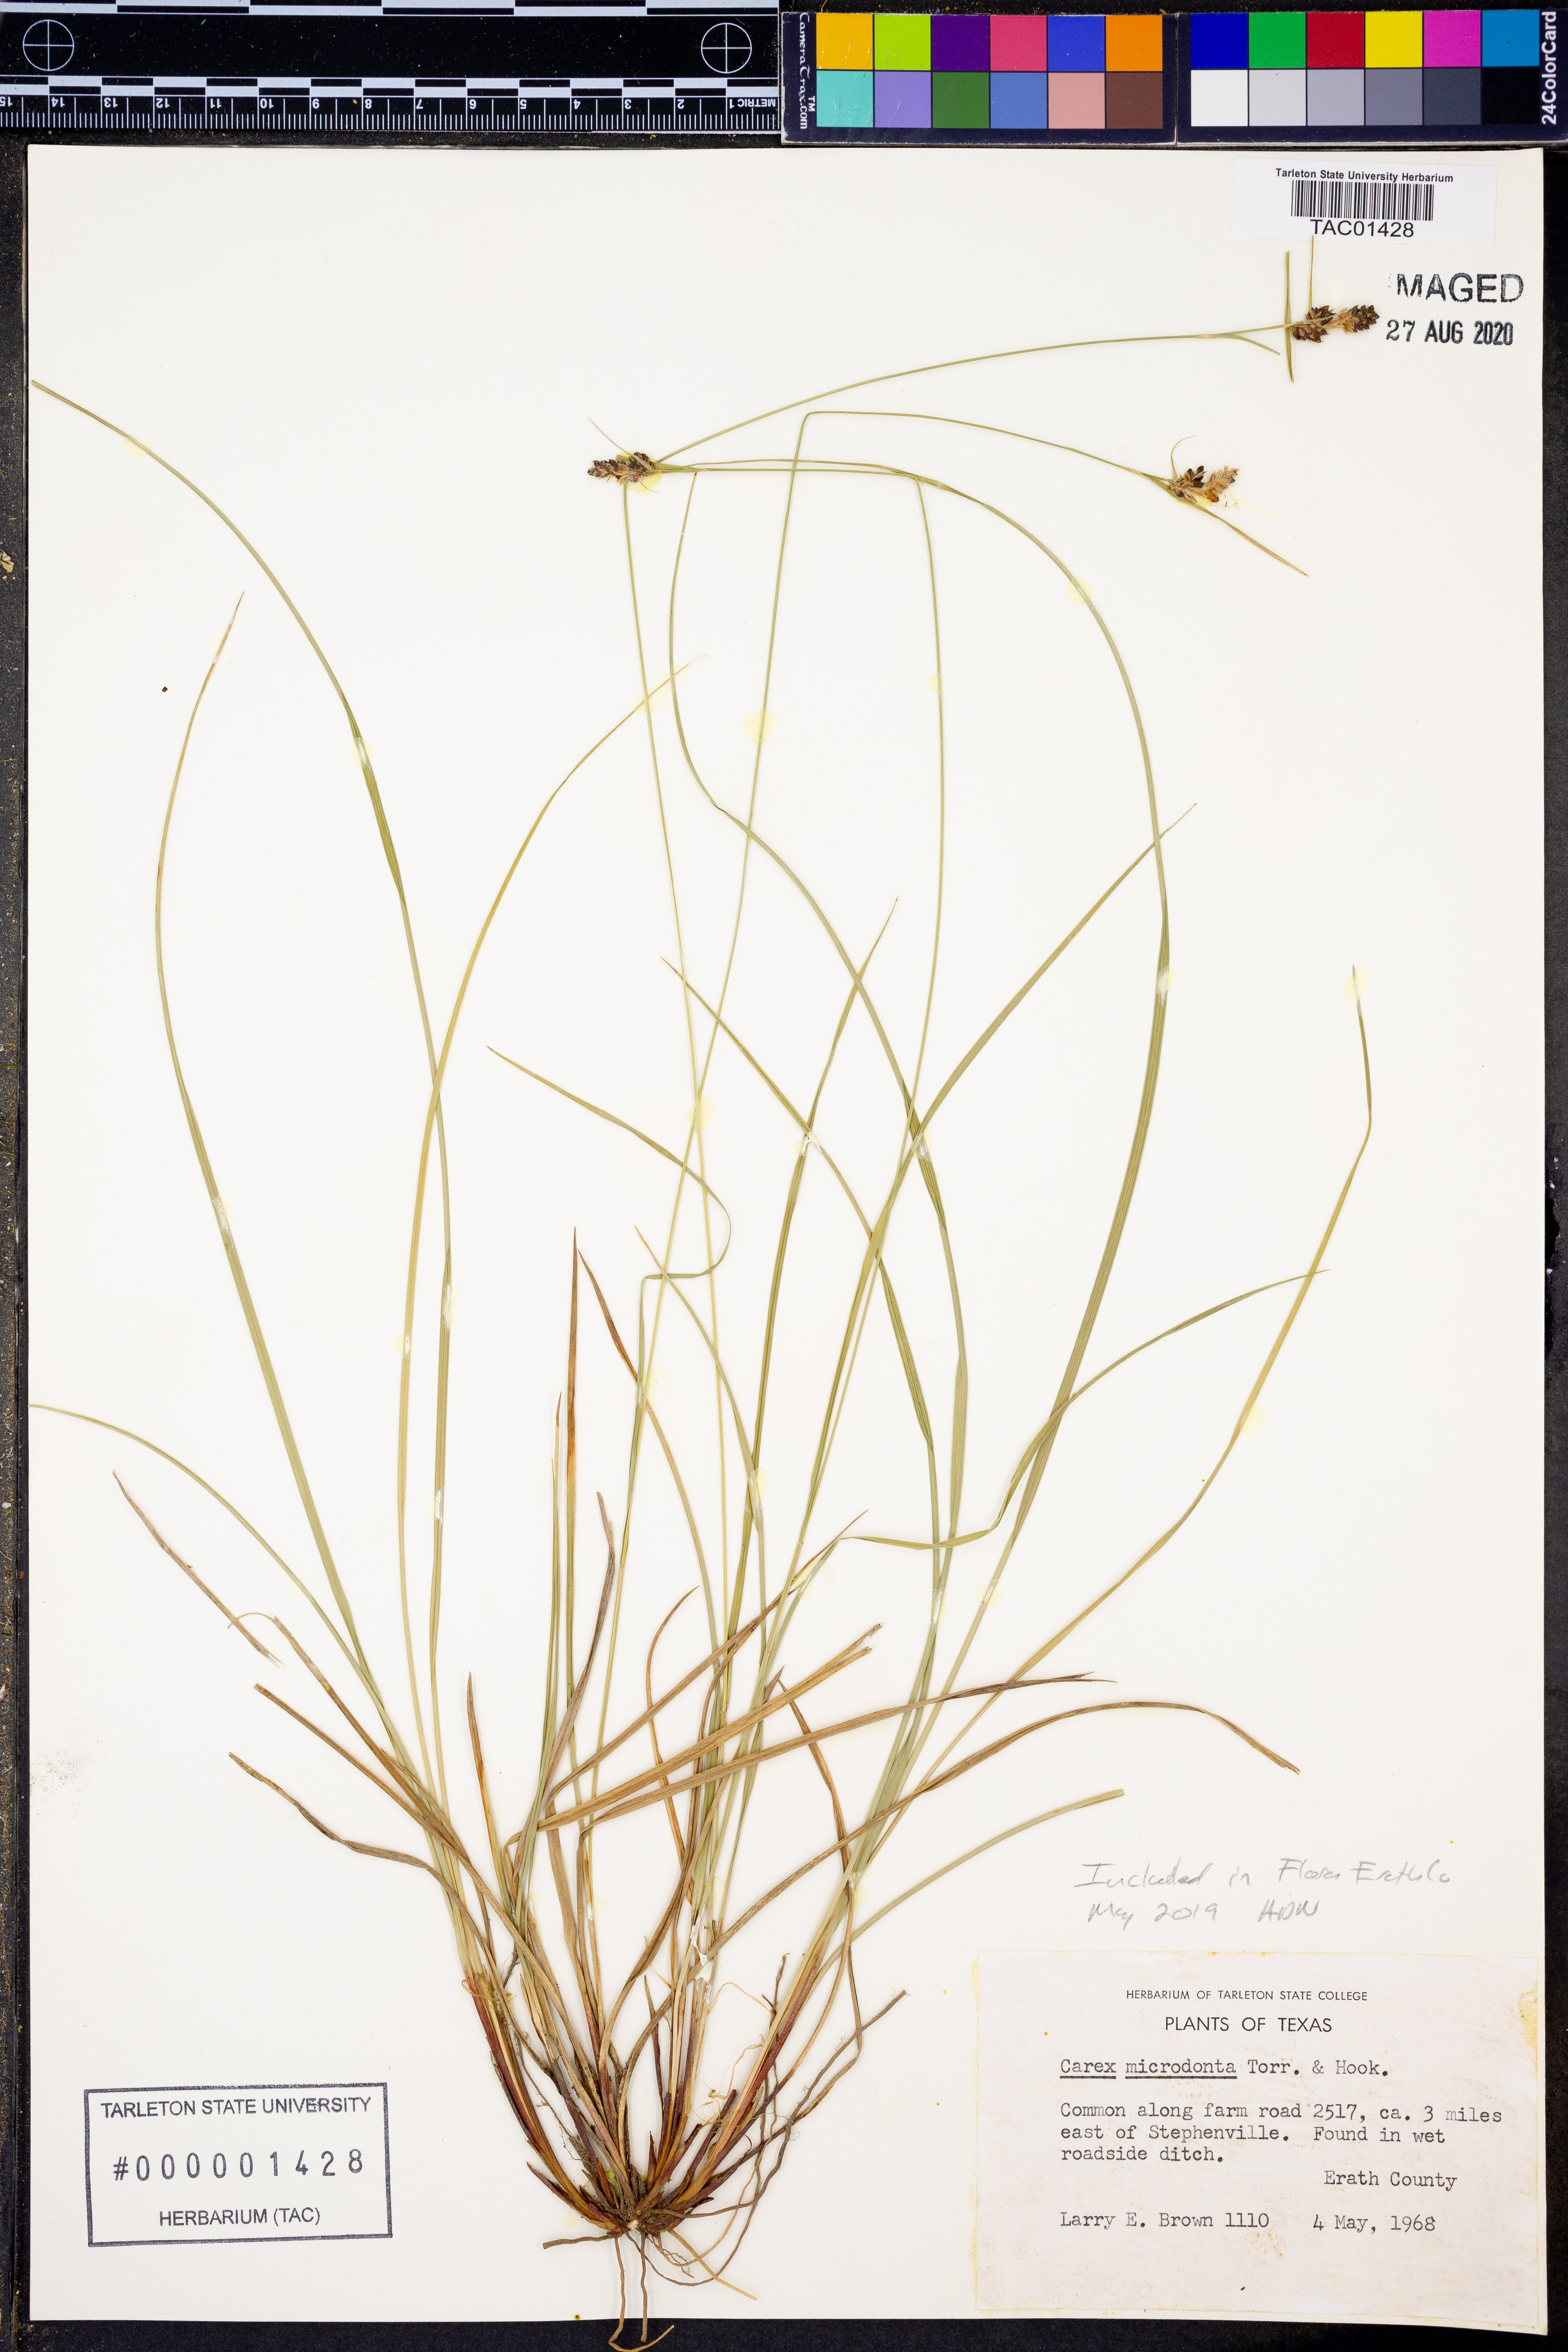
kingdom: Plantae
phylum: Tracheophyta
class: Liliopsida
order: Poales
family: Cyperaceae
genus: Carex
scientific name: Carex microdonta
